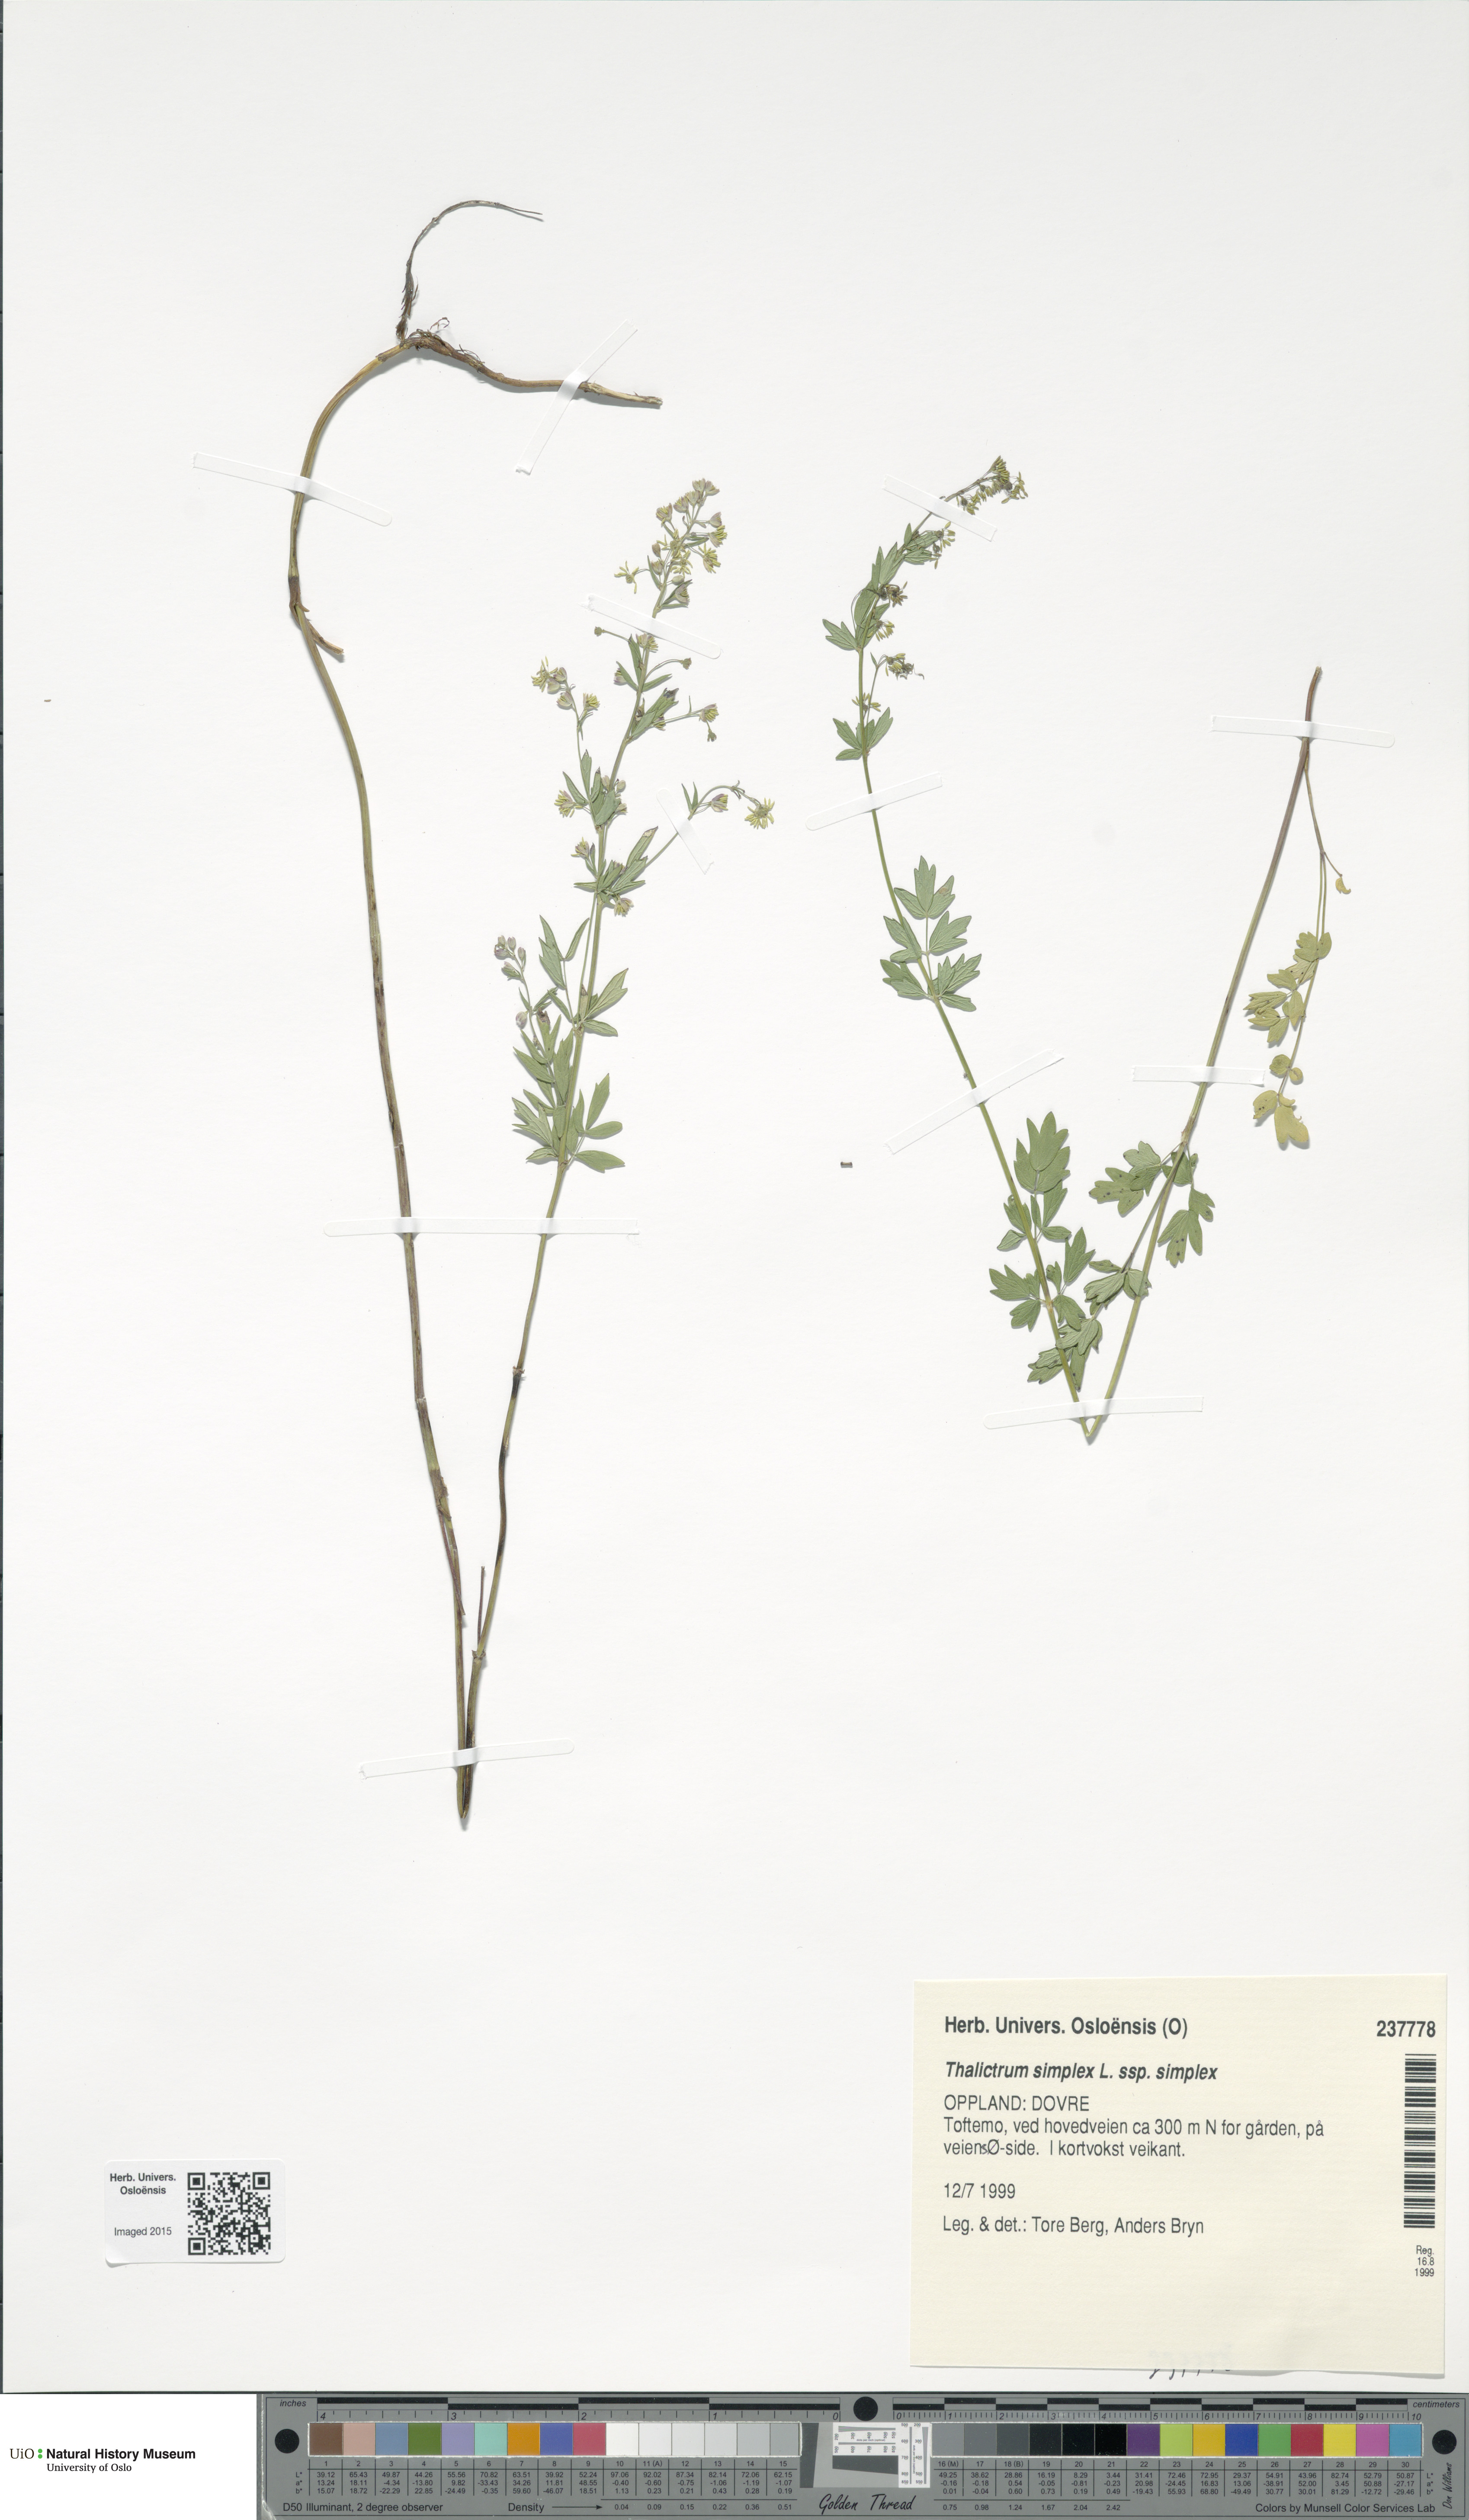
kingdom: Plantae
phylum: Tracheophyta
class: Magnoliopsida
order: Ranunculales
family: Ranunculaceae
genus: Thalictrum
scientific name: Thalictrum simplex
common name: Small meadow-rue
